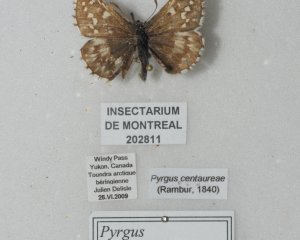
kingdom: Animalia
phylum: Arthropoda
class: Insecta
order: Lepidoptera
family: Hesperiidae
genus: Pyrgus
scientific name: Pyrgus centaureae
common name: Grizzled Skipper
